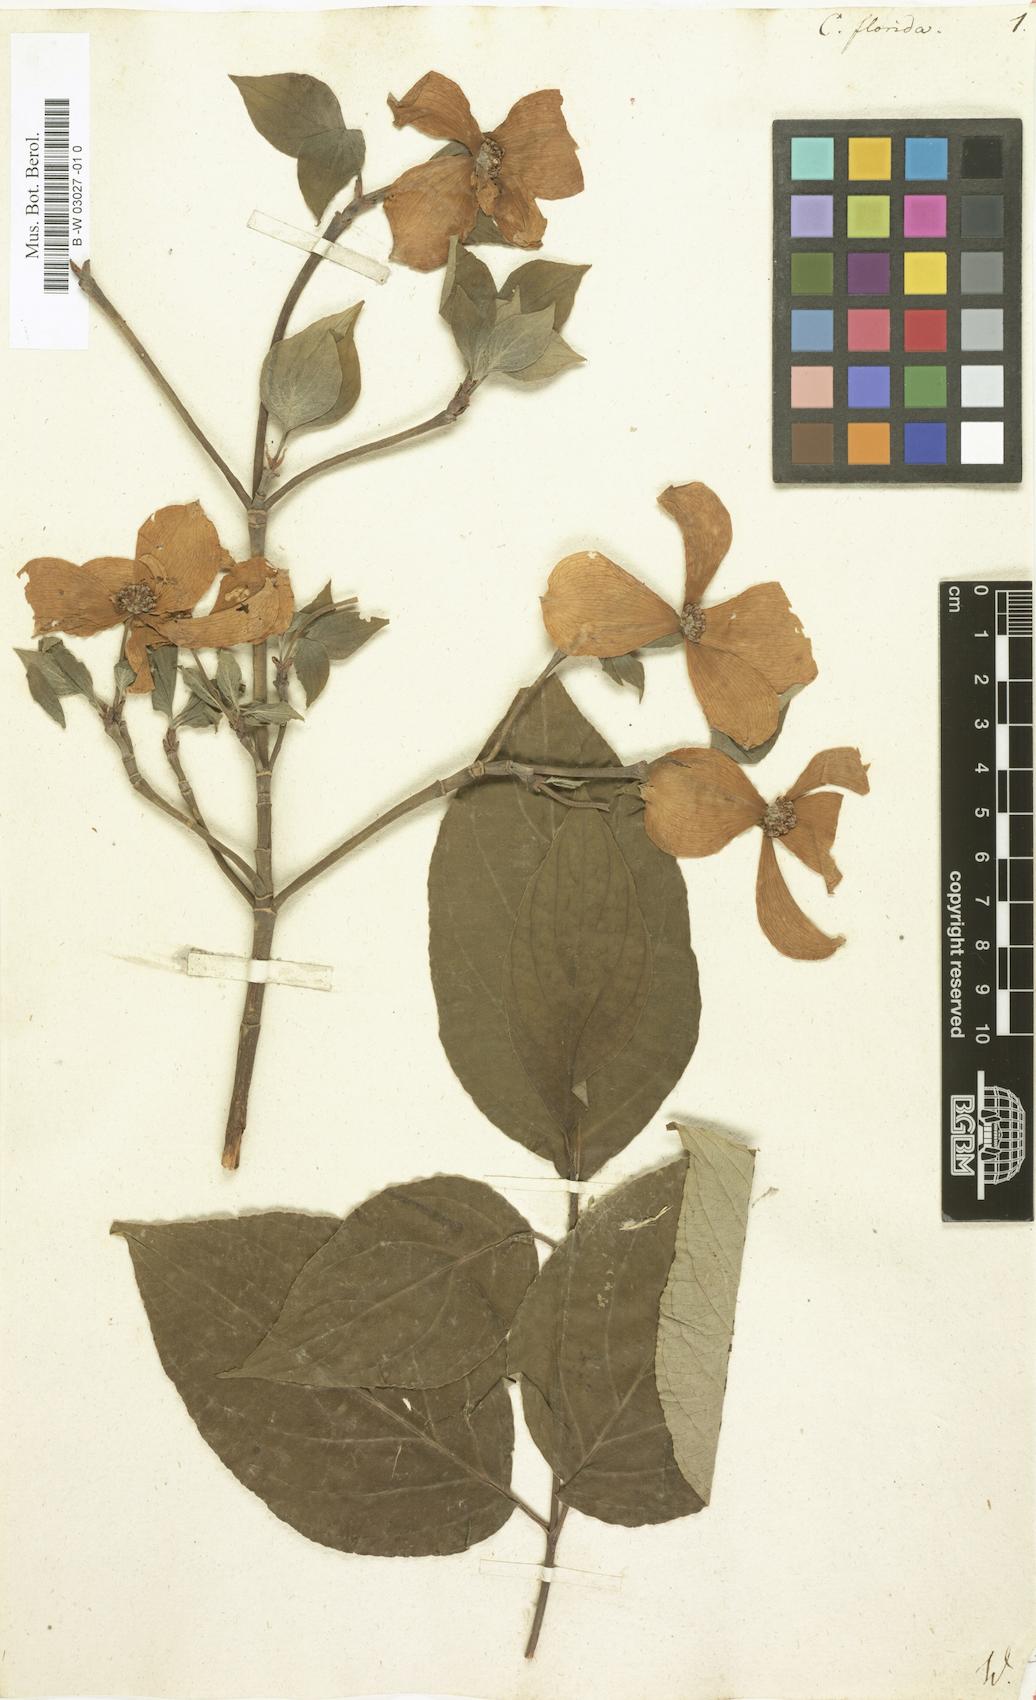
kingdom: Plantae
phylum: Tracheophyta
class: Magnoliopsida
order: Cornales
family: Cornaceae
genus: Cornus
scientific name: Cornus florida
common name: Flowering dogwood
